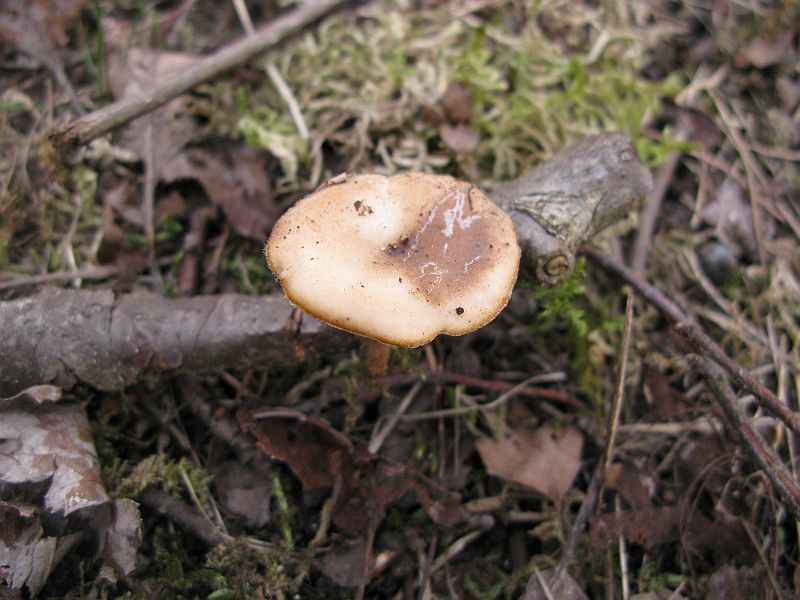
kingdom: Fungi
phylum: Basidiomycota
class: Agaricomycetes
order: Polyporales
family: Polyporaceae
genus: Lentinus
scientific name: Lentinus substrictus
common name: forårs-stilkporesvamp
